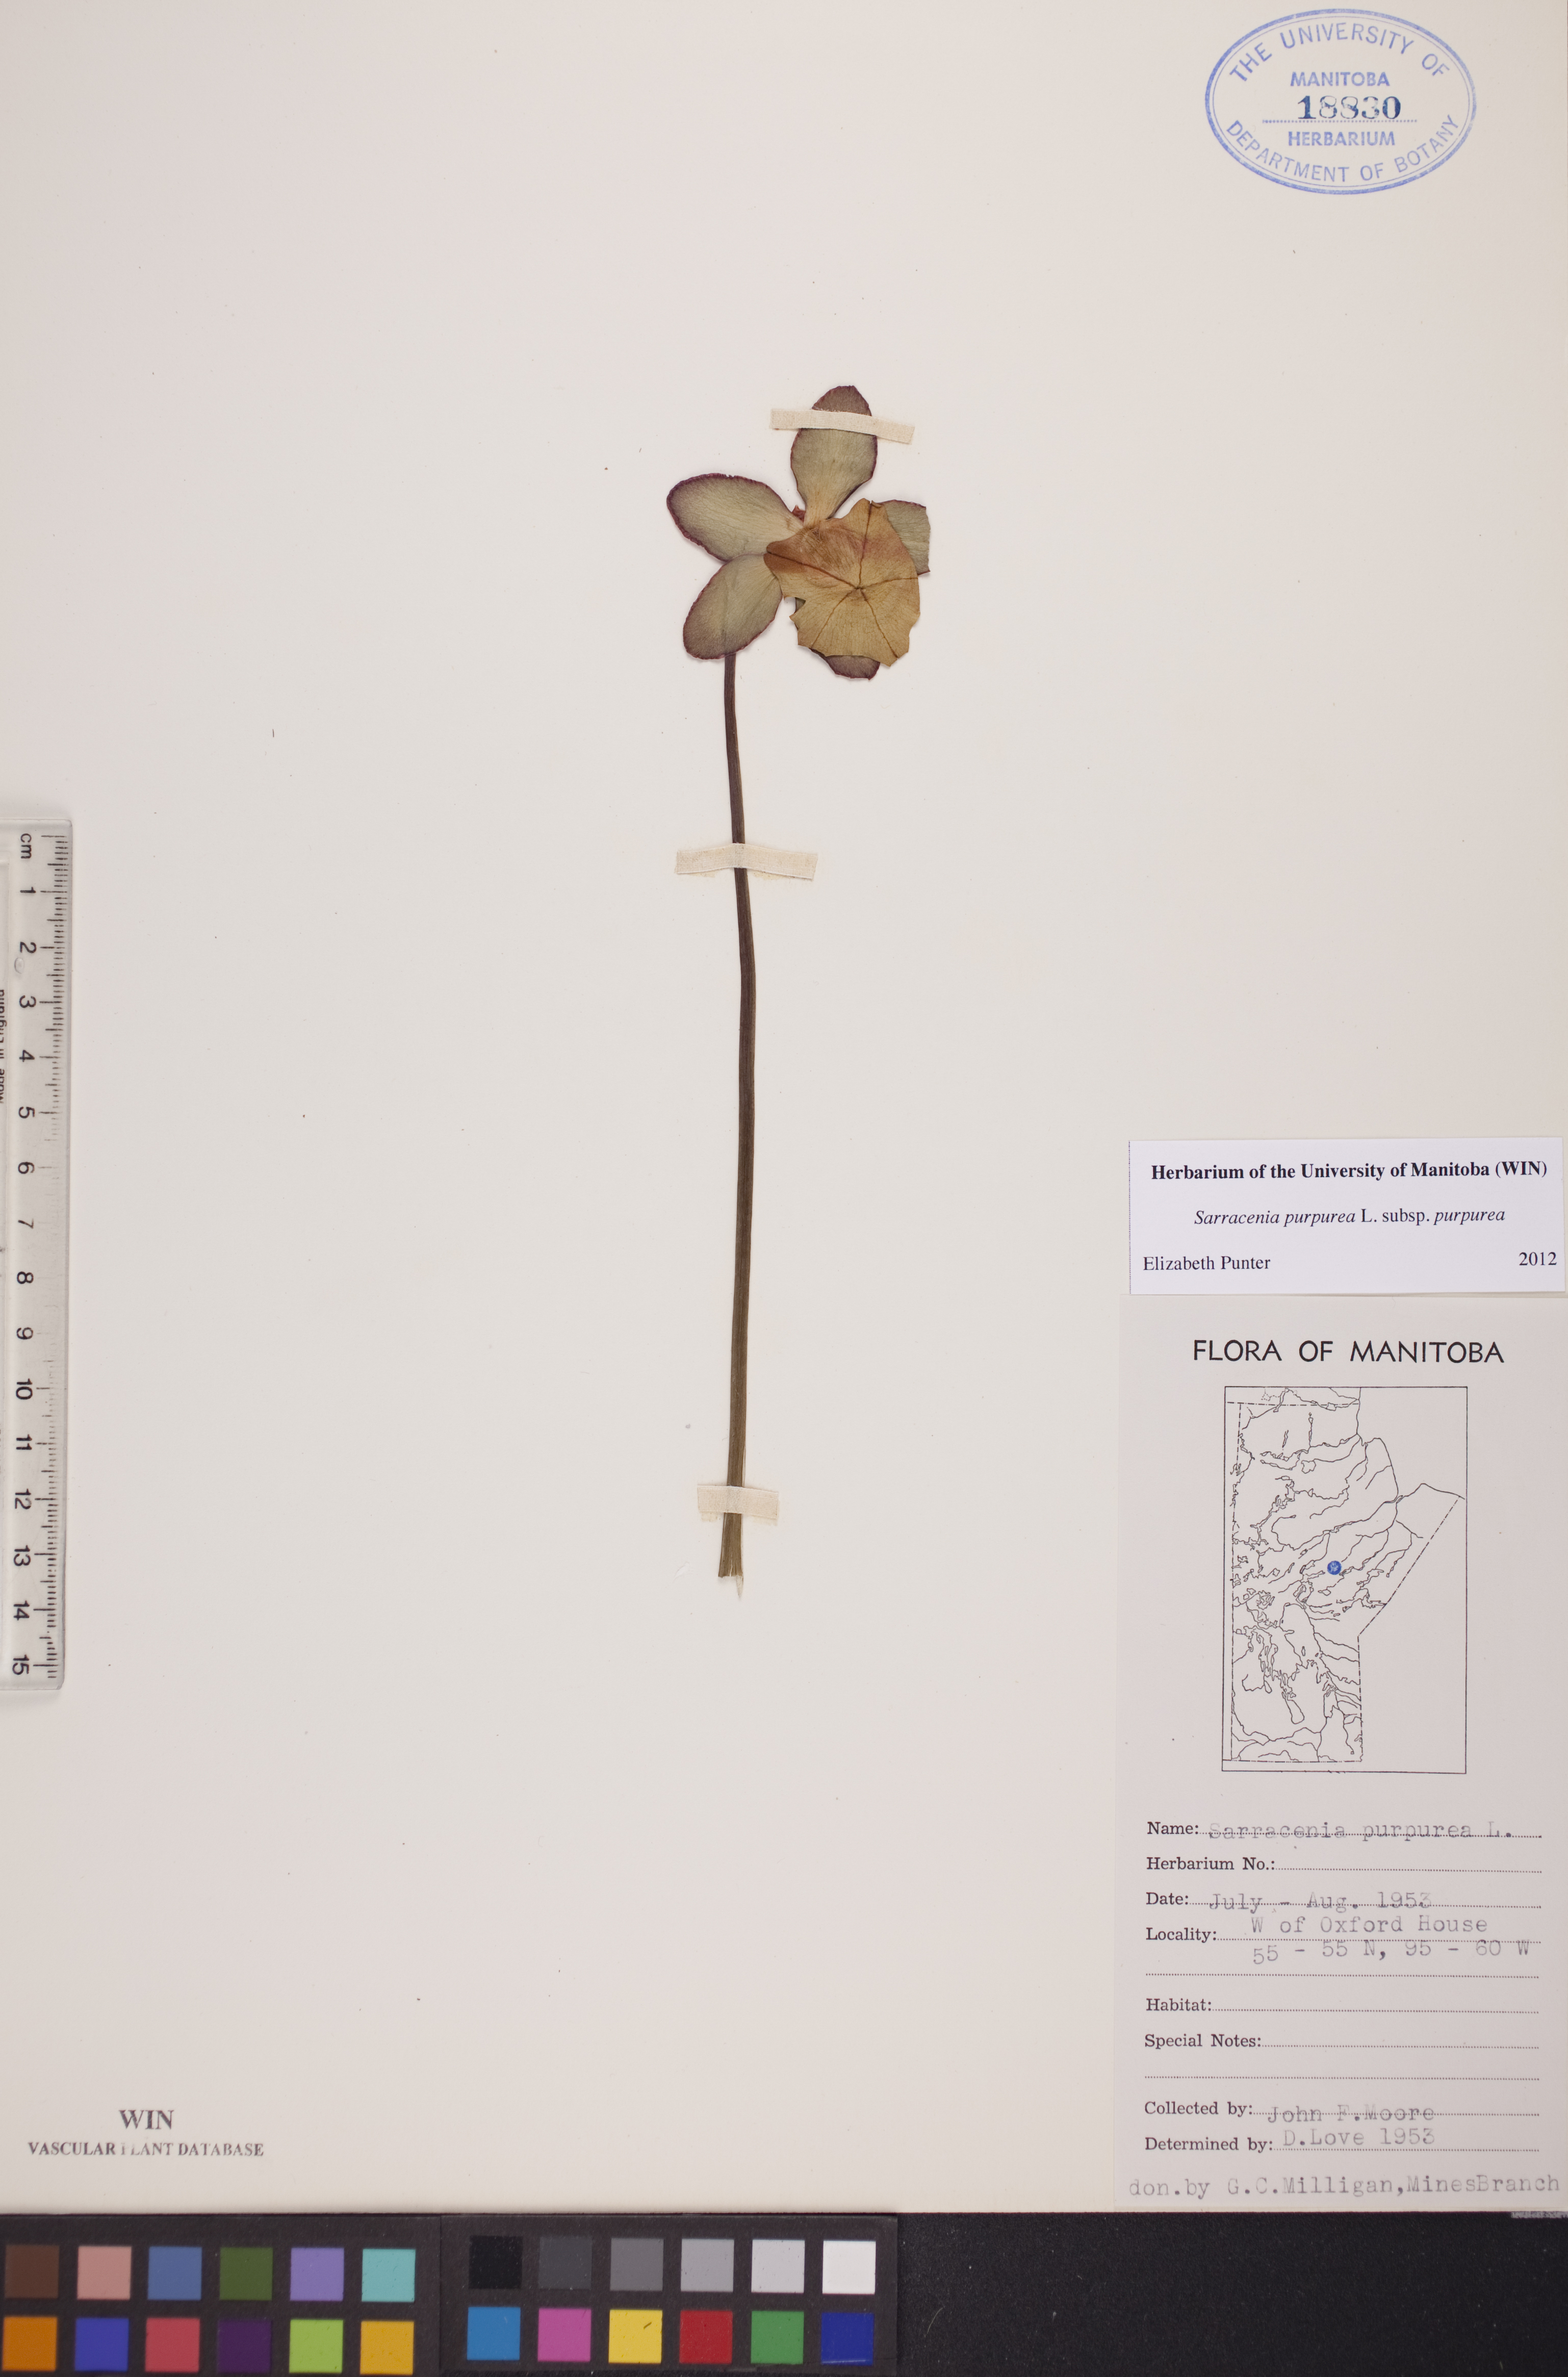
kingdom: Plantae
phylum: Tracheophyta
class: Magnoliopsida
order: Ericales
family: Sarraceniaceae
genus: Sarracenia
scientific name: Sarracenia purpurea
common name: Pitcherplant
